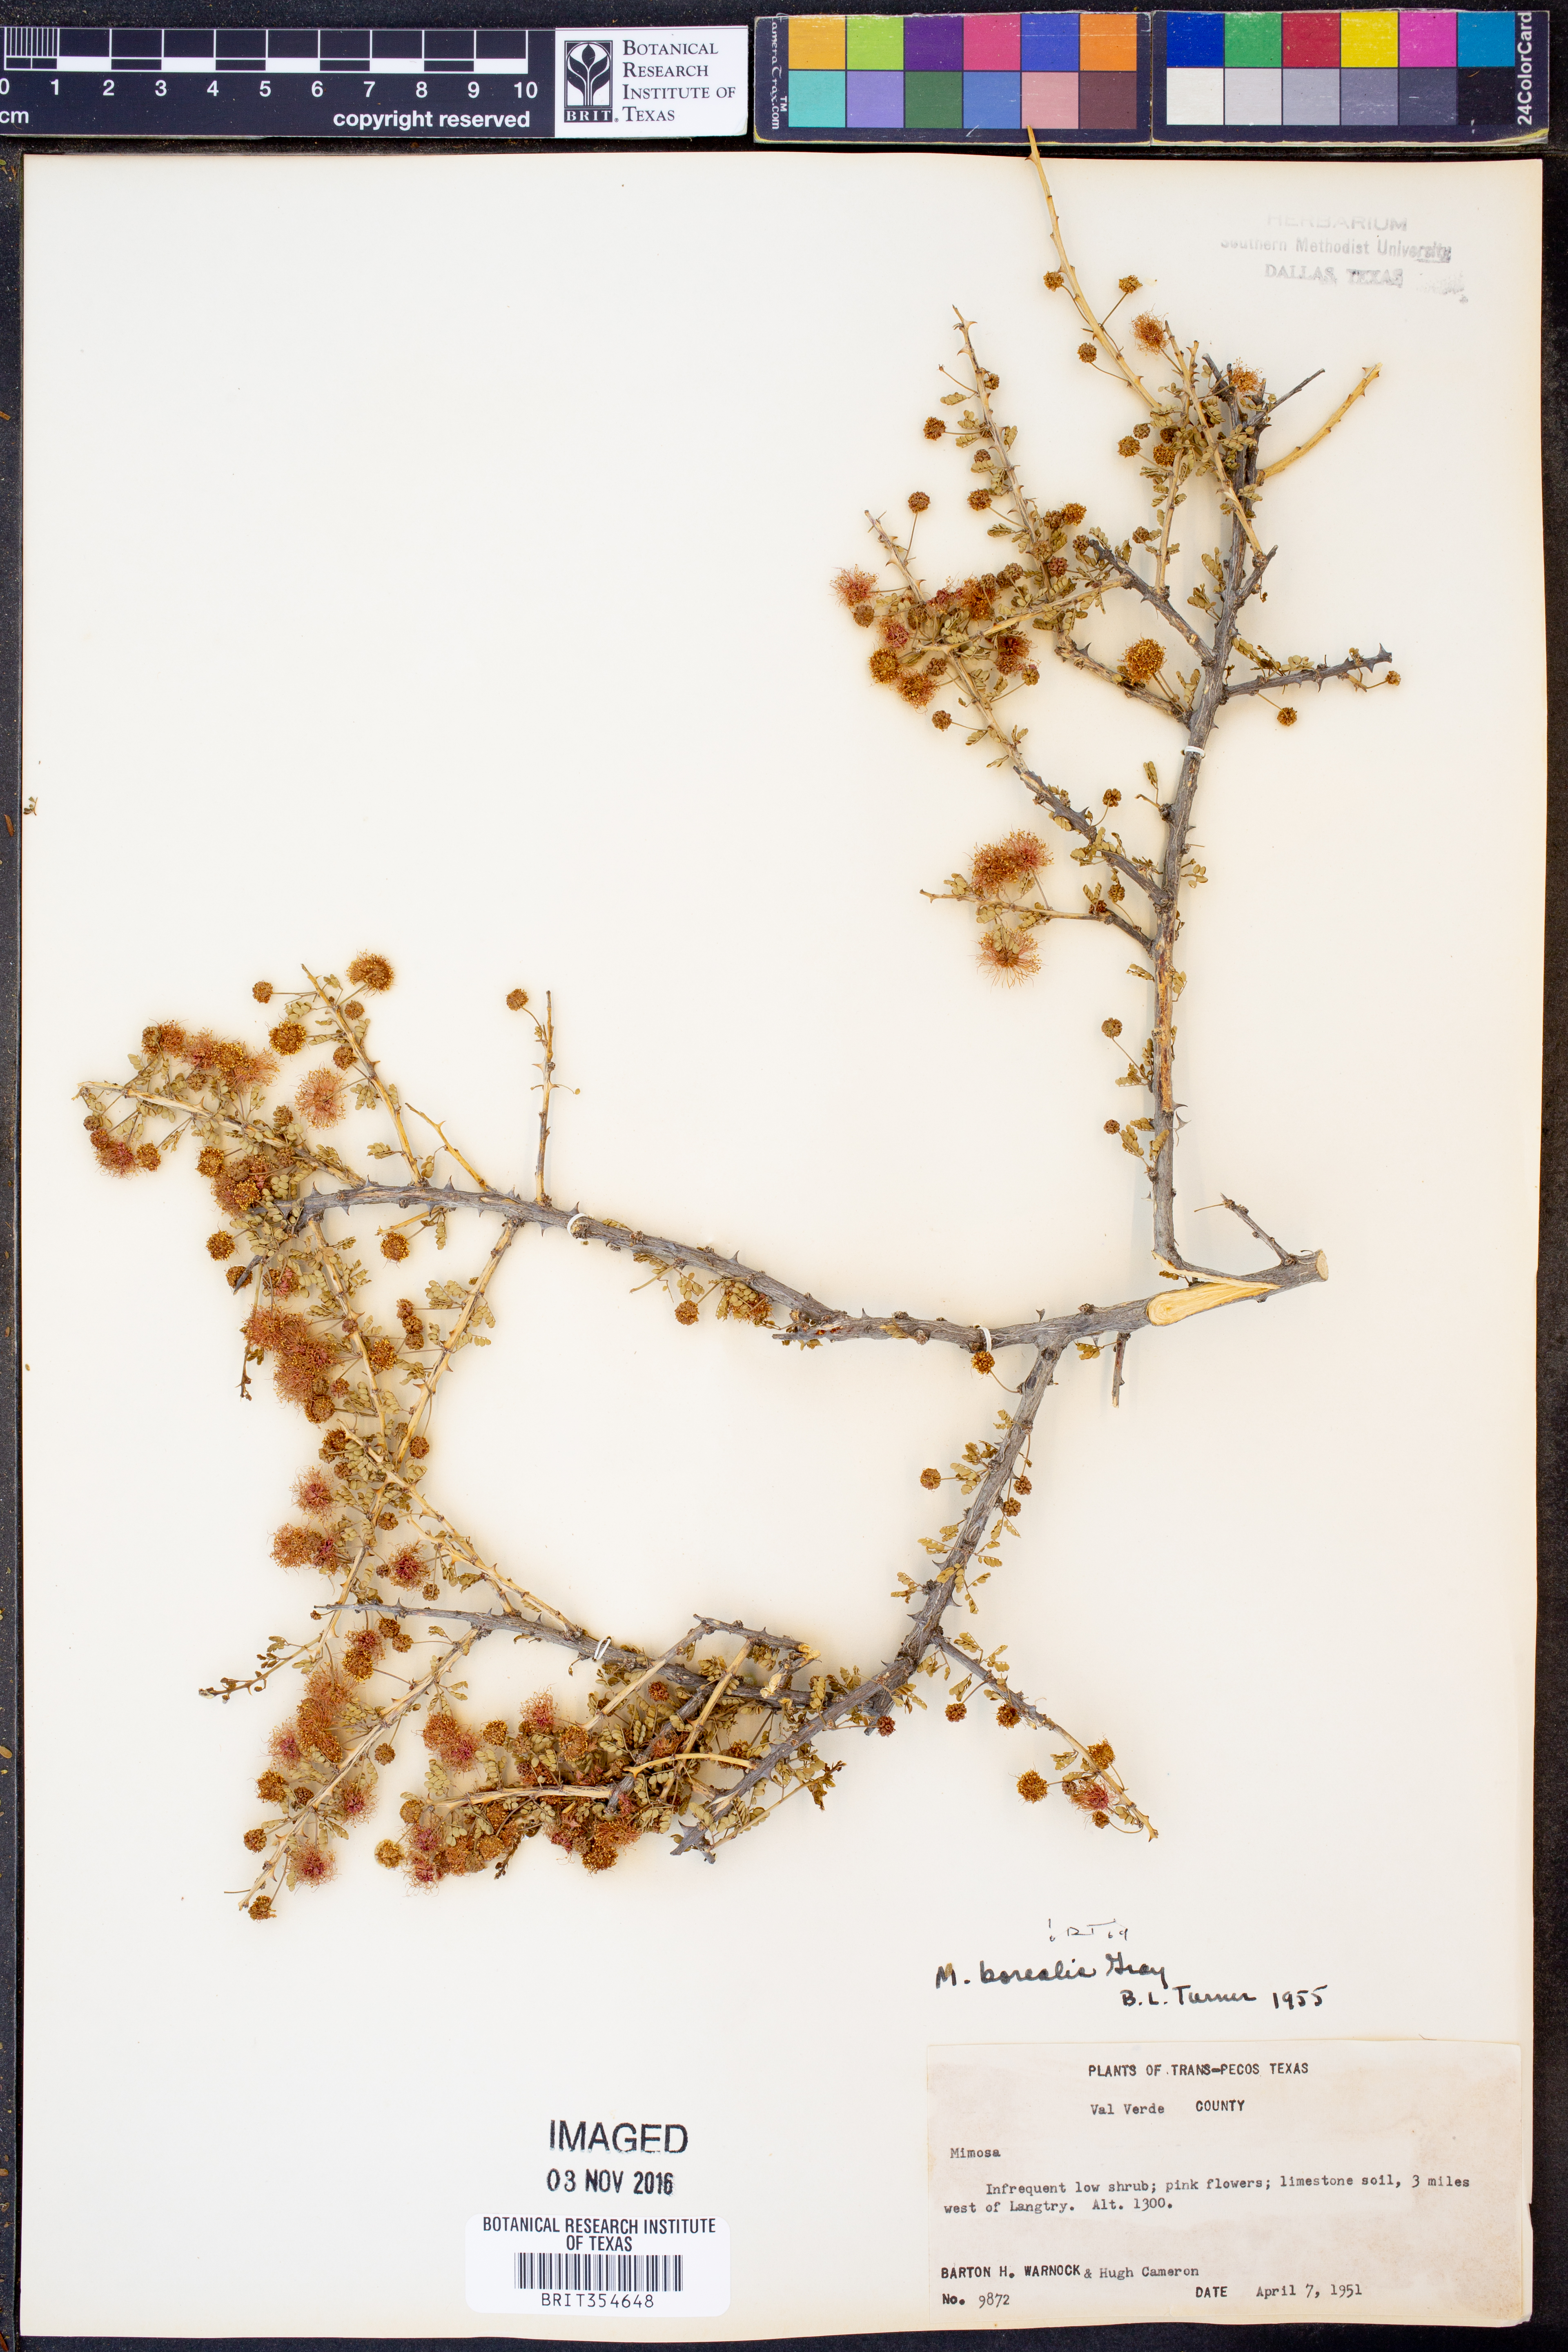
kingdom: Plantae
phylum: Tracheophyta
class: Magnoliopsida
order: Fabales
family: Fabaceae
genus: Mimosa
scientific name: Mimosa borealis
